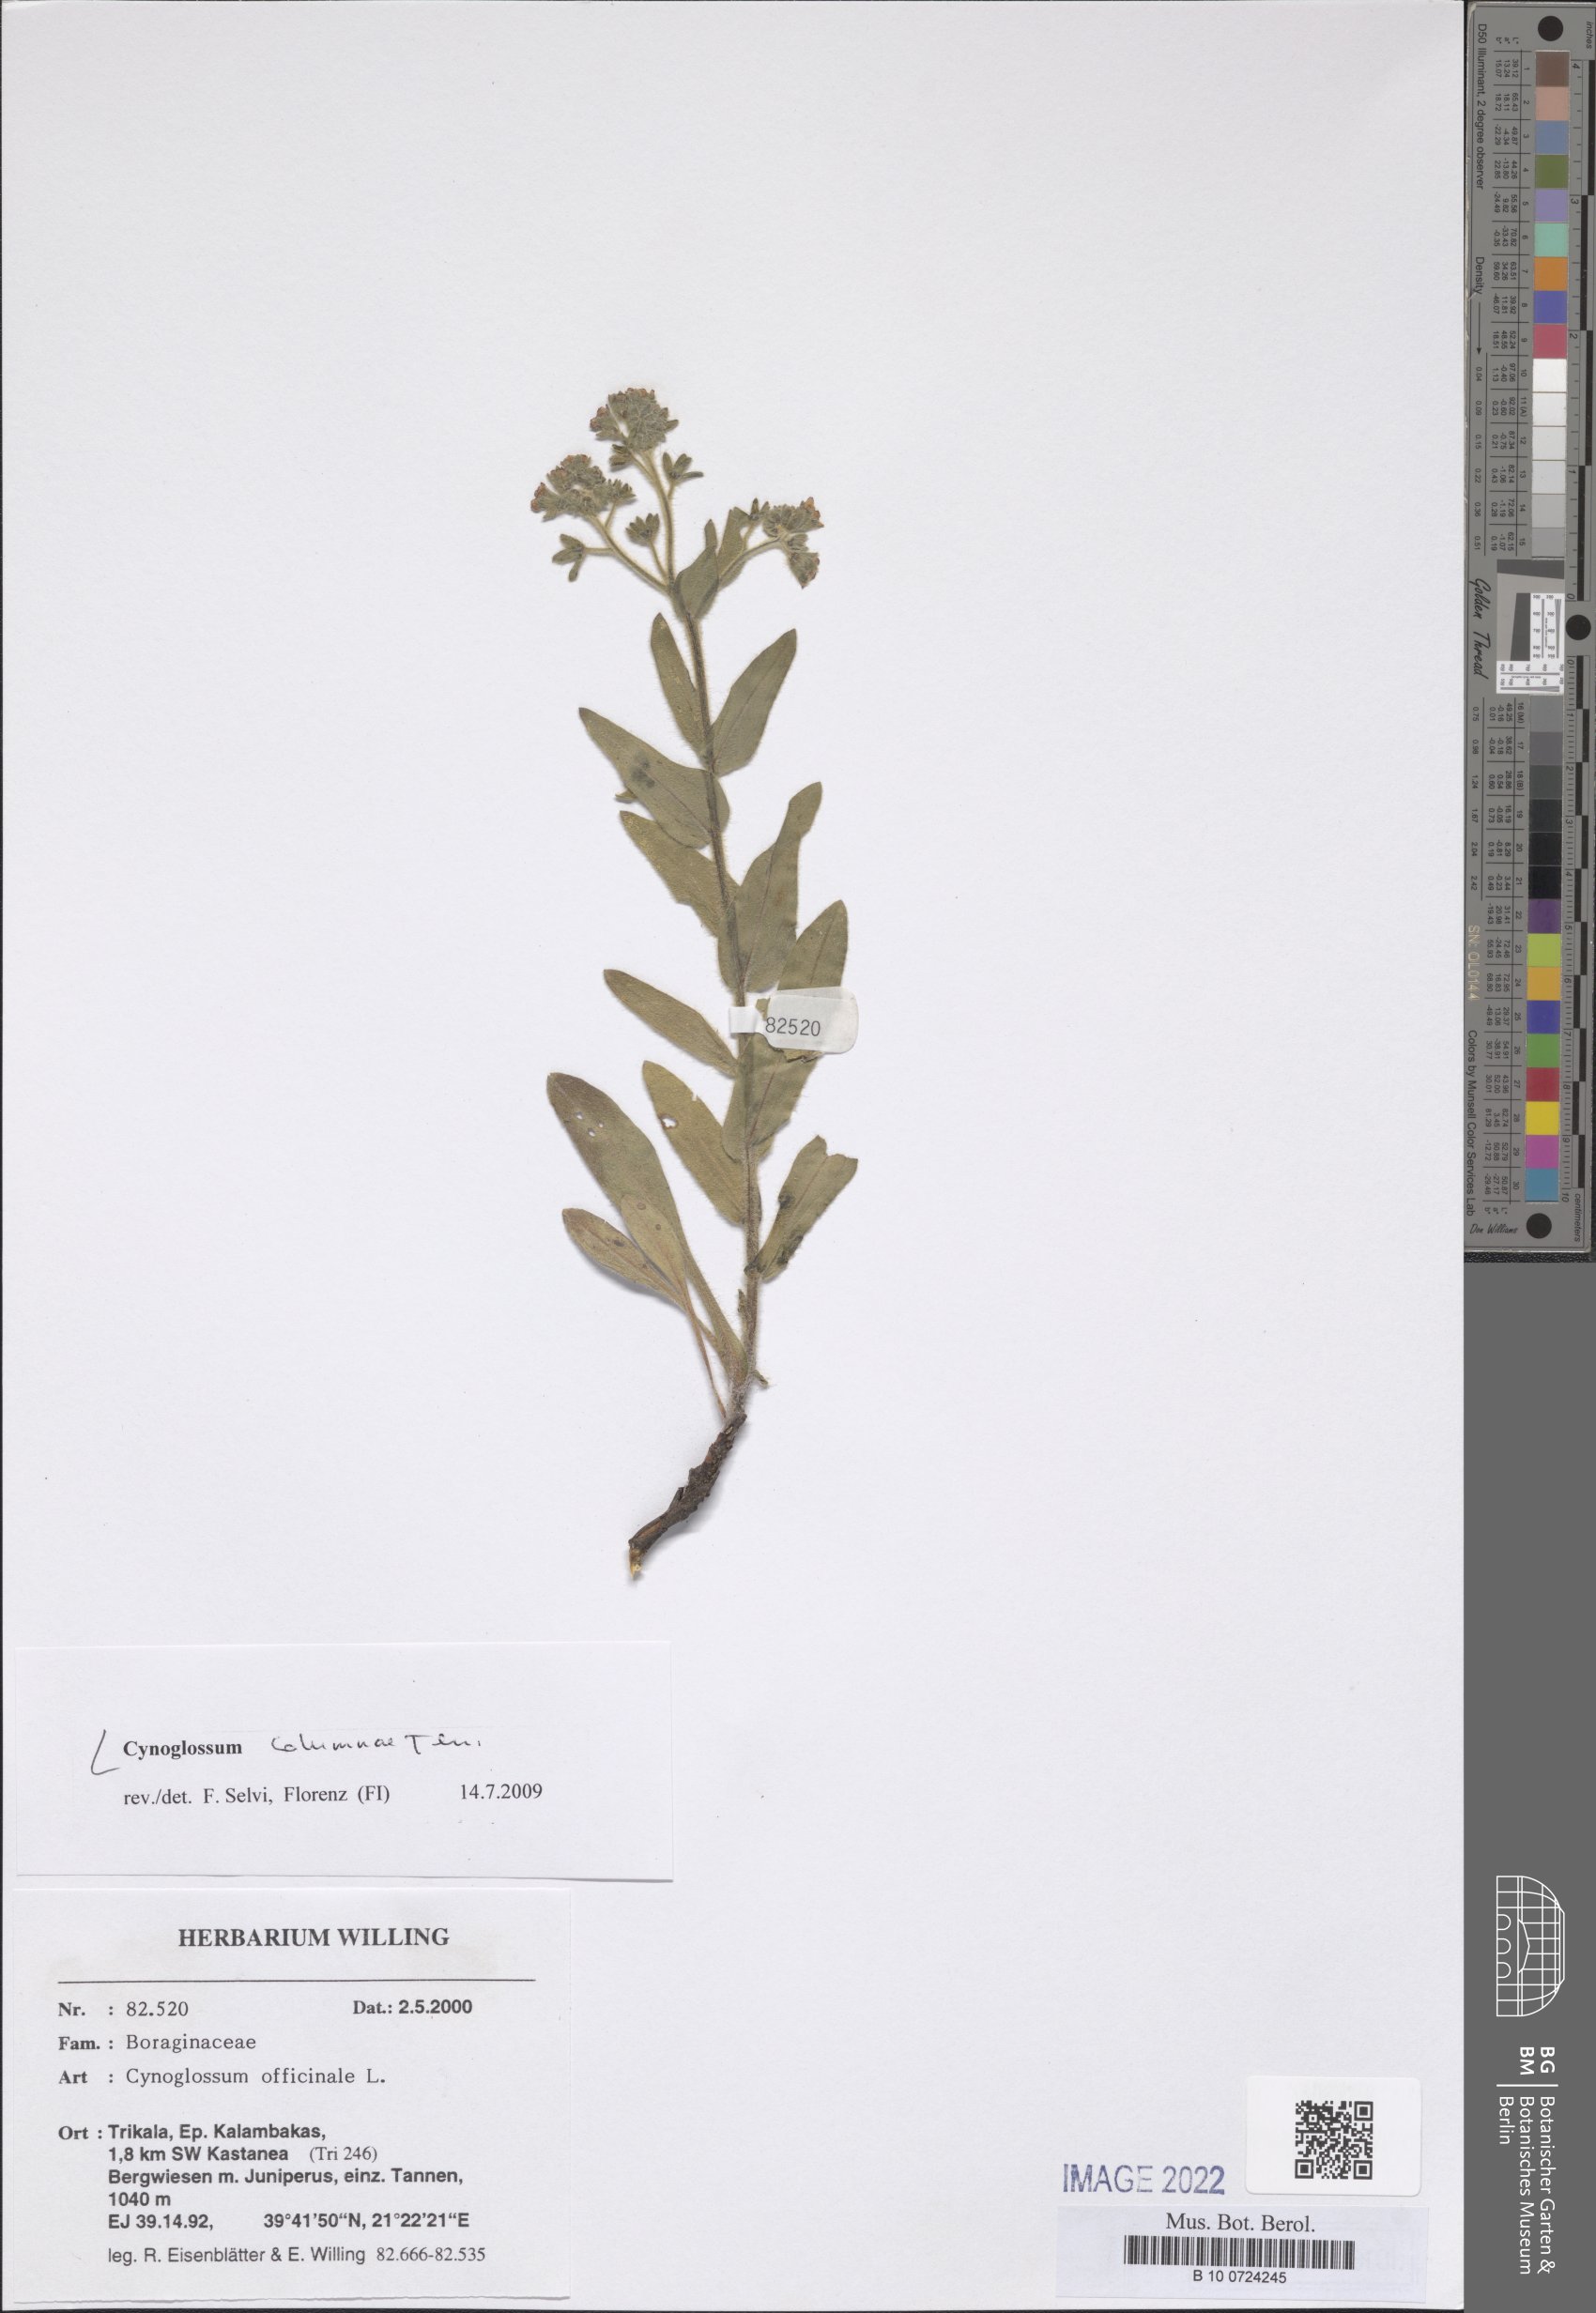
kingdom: Plantae
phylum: Tracheophyta
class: Magnoliopsida
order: Boraginales
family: Boraginaceae
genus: Rindera
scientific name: Rindera columnae
